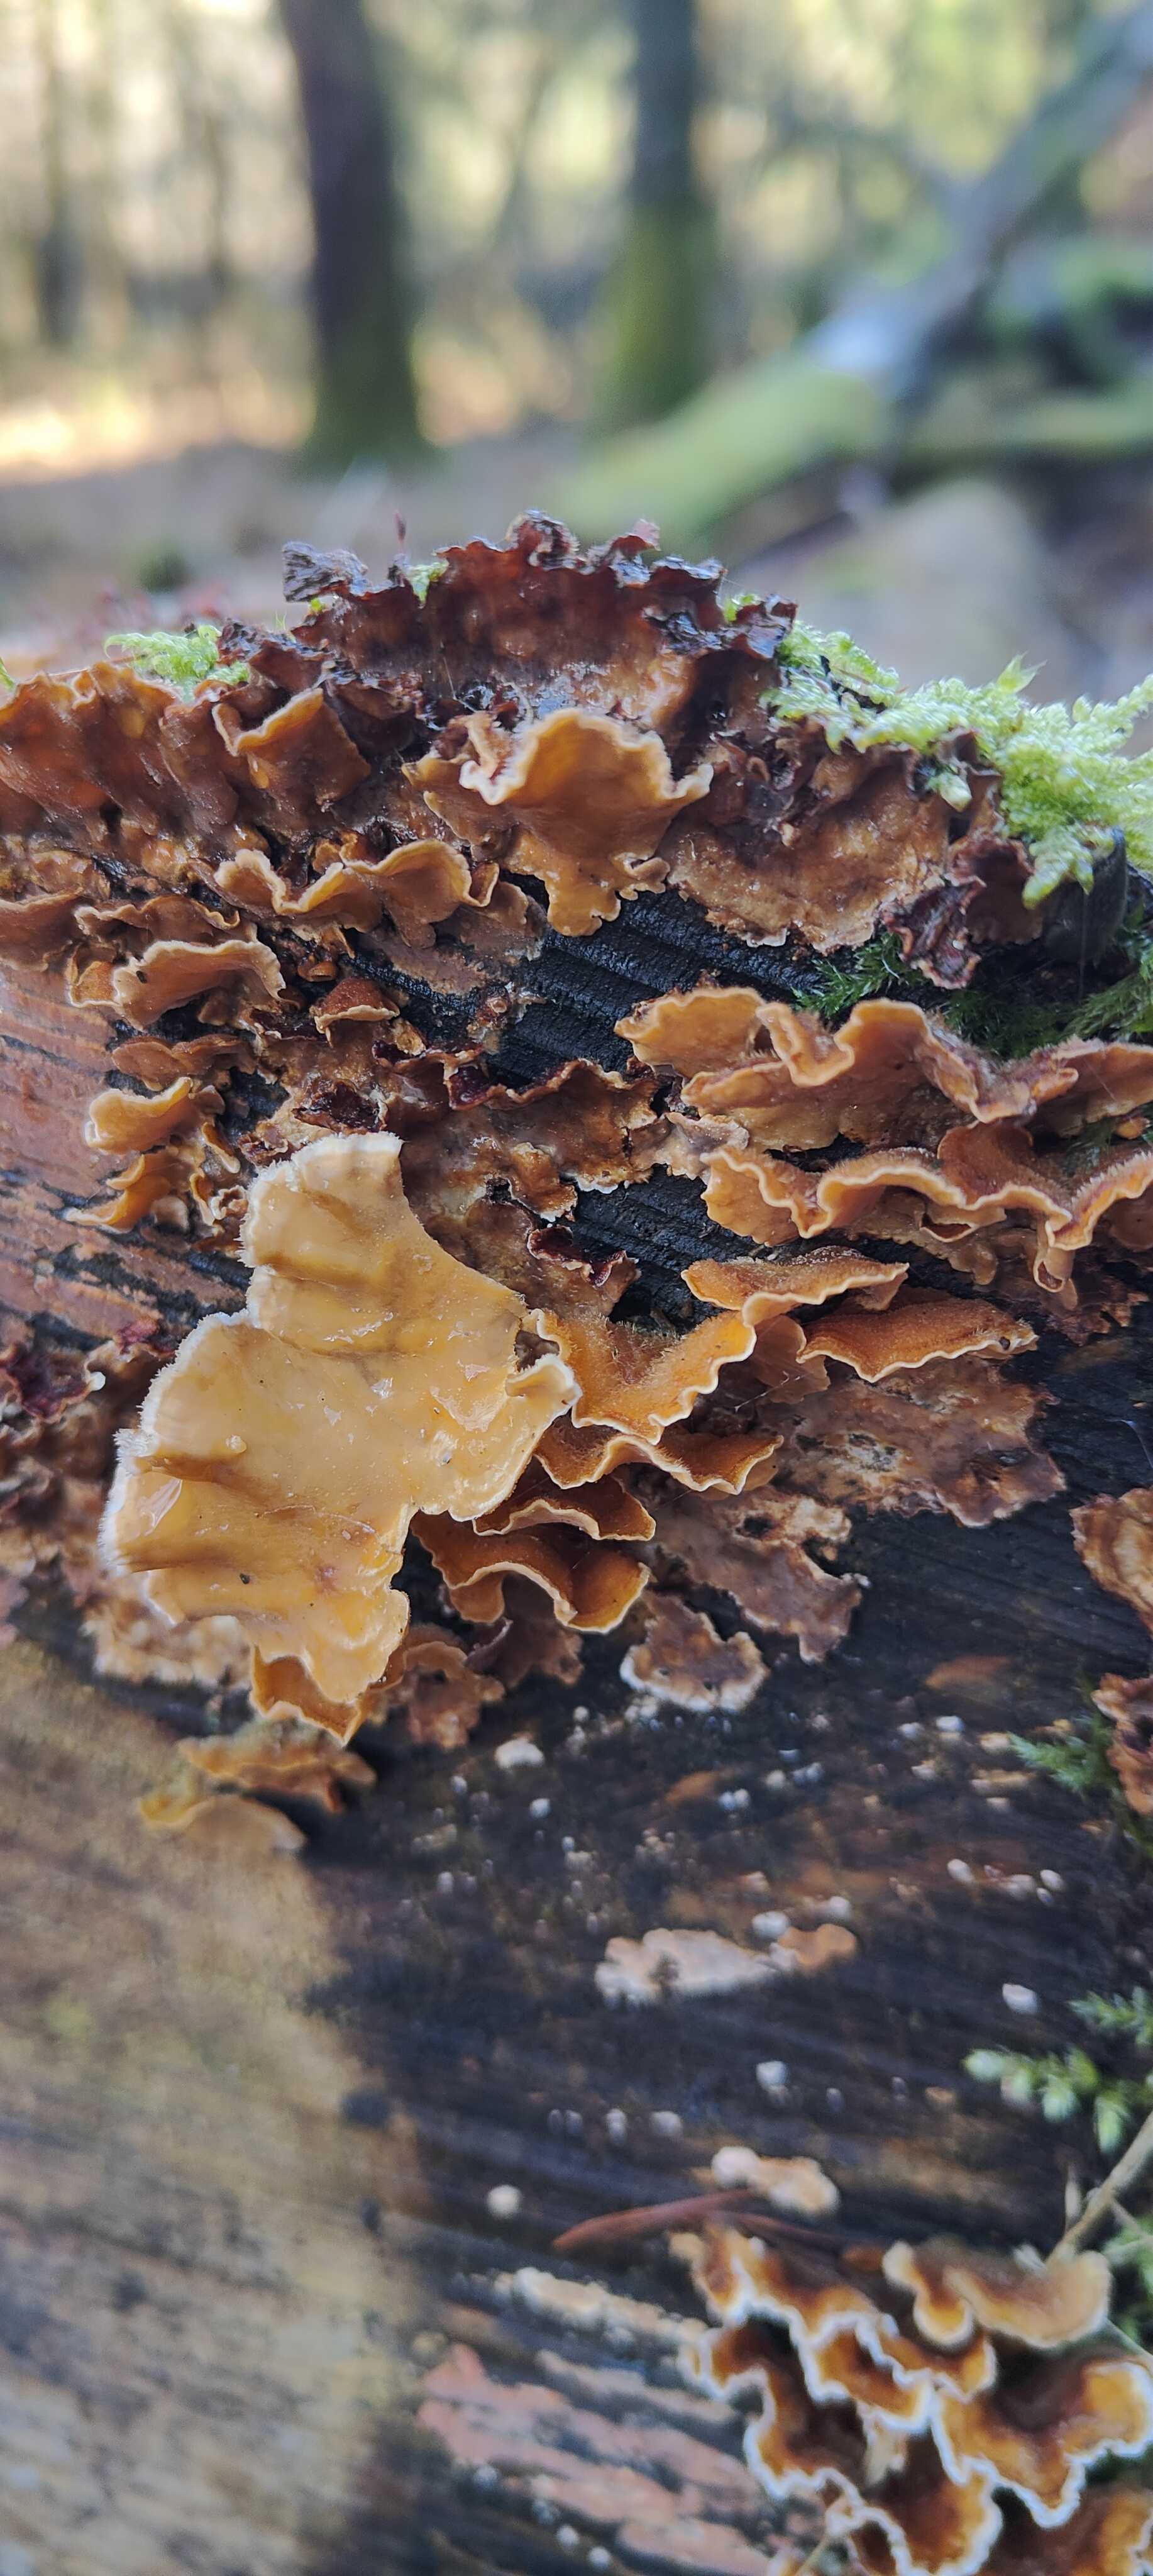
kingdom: Fungi
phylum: Basidiomycota
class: Agaricomycetes
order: Russulales
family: Stereaceae
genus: Stereum
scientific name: Stereum hirsutum
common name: håret lædersvamp
